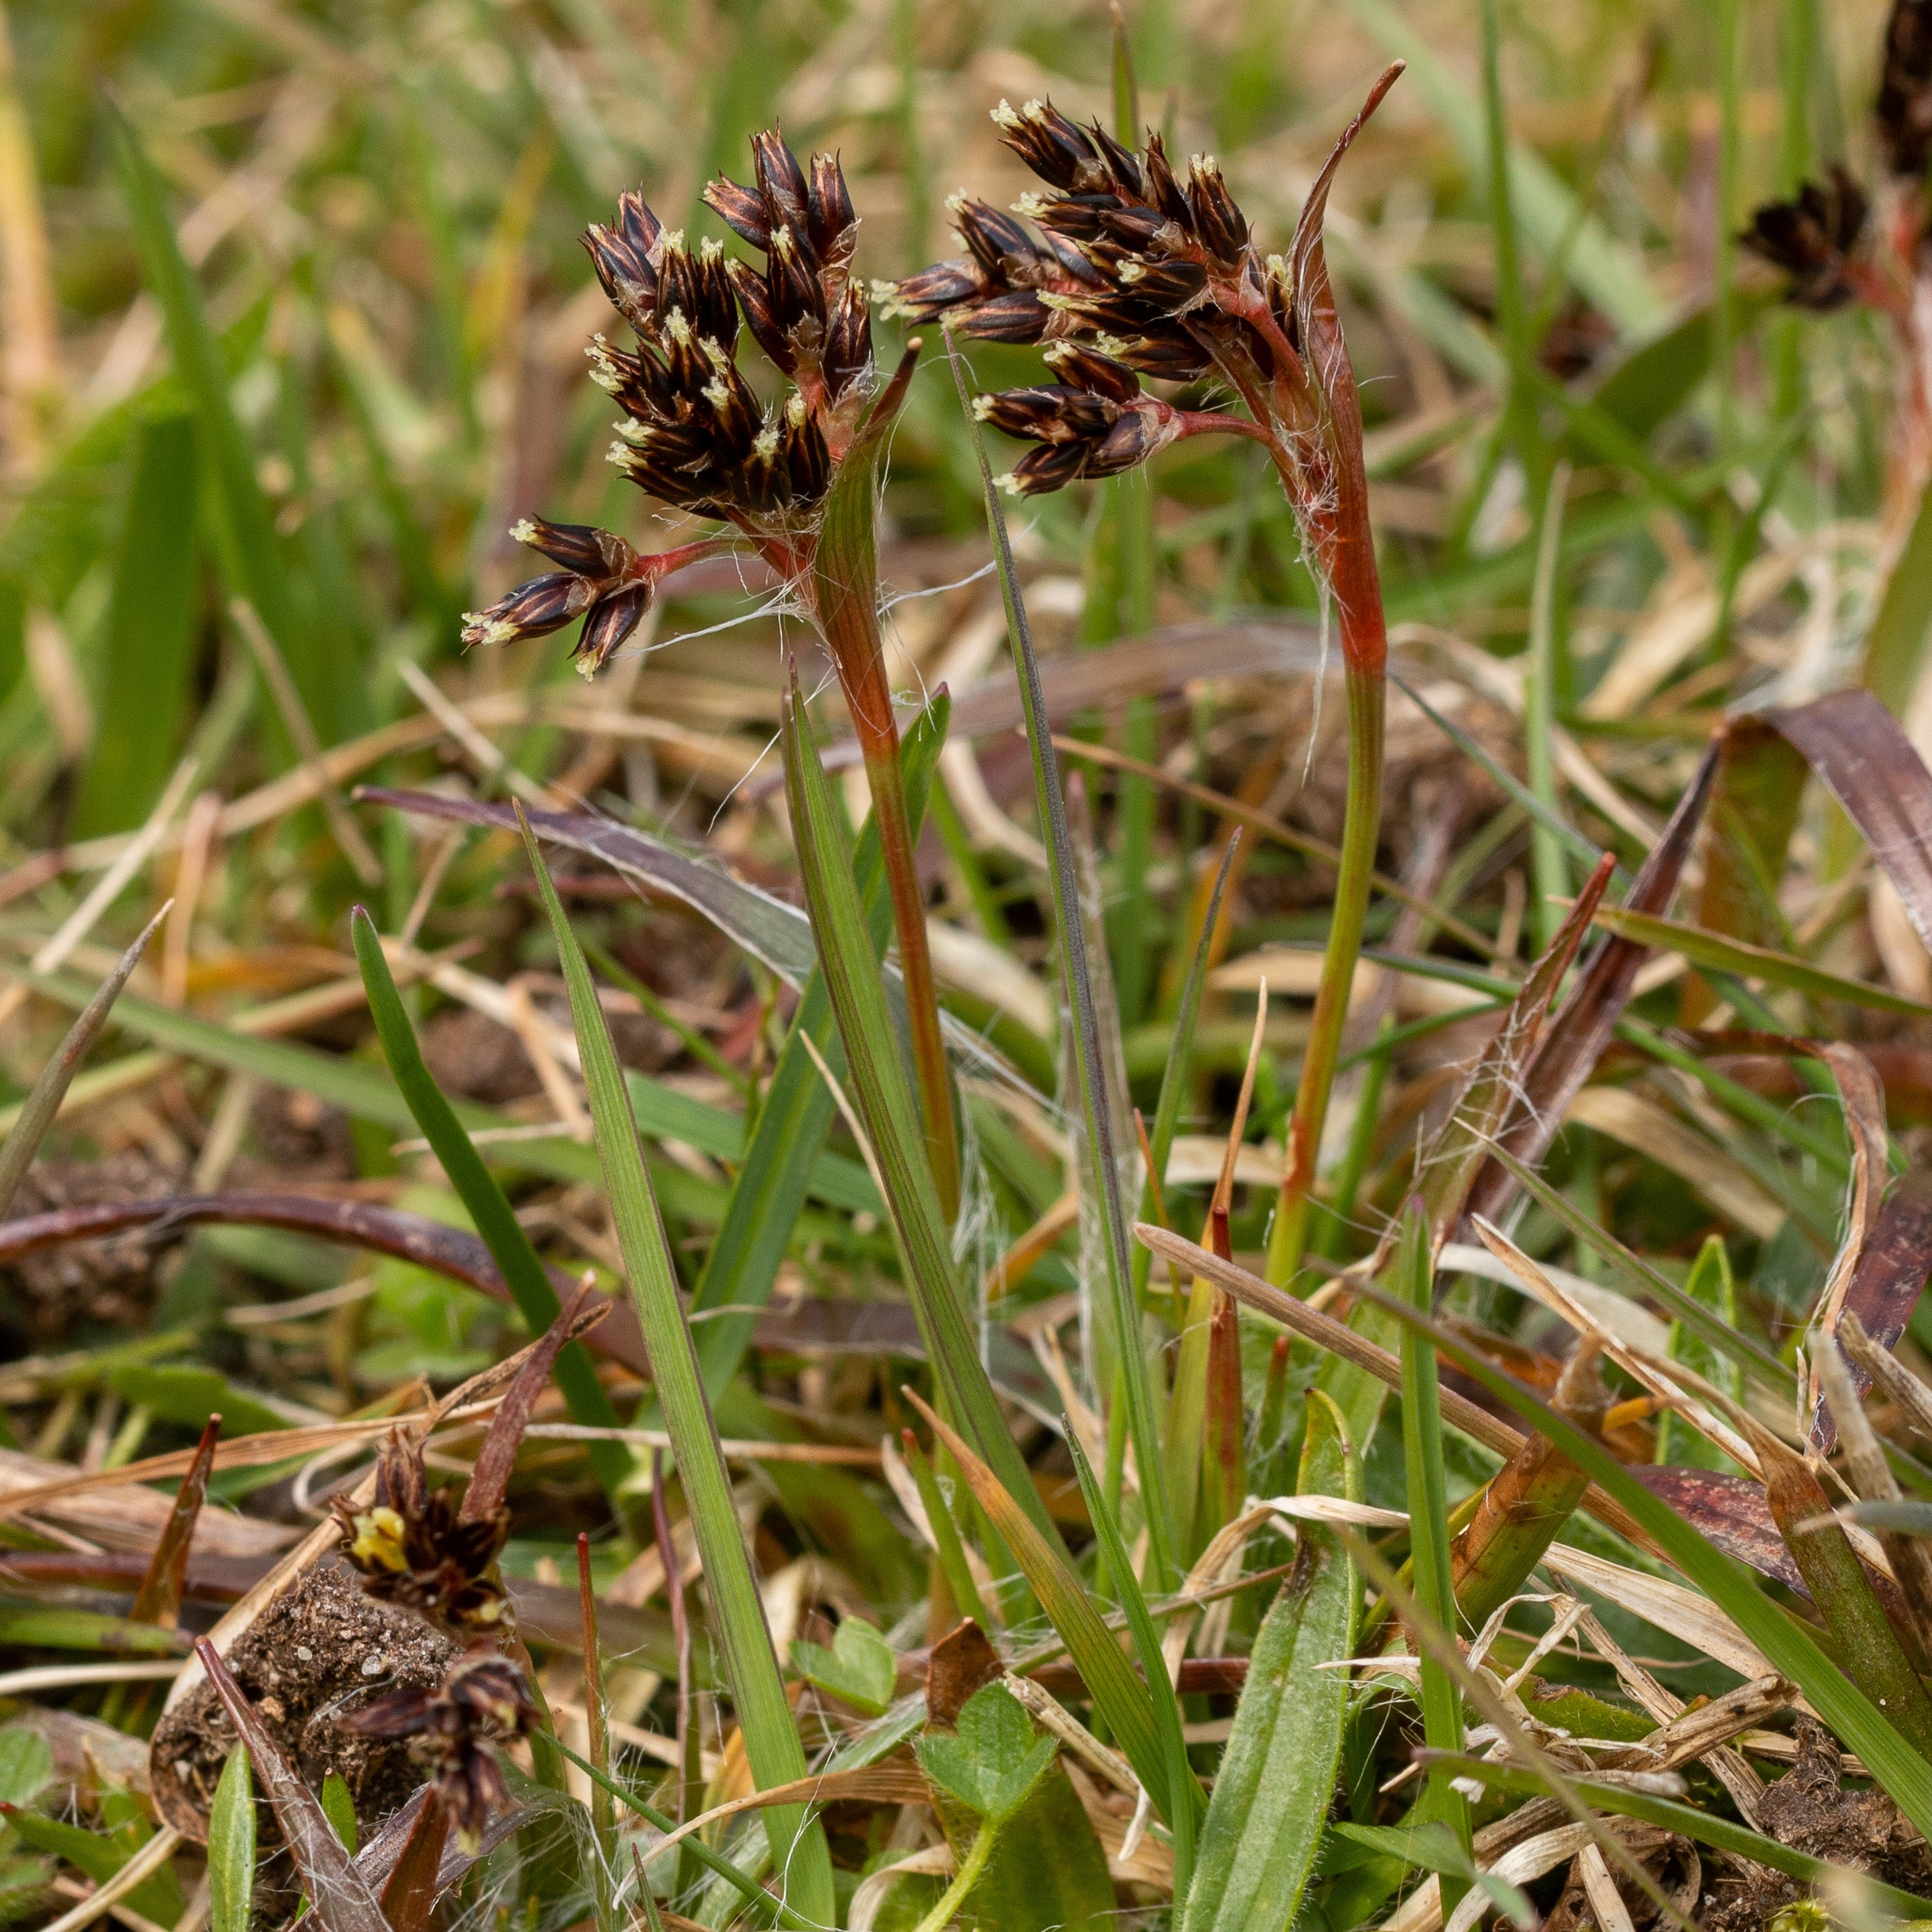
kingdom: Plantae
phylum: Tracheophyta
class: Liliopsida
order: Poales
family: Juncaceae
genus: Luzula
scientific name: Luzula campestris
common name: Mark-frytle
